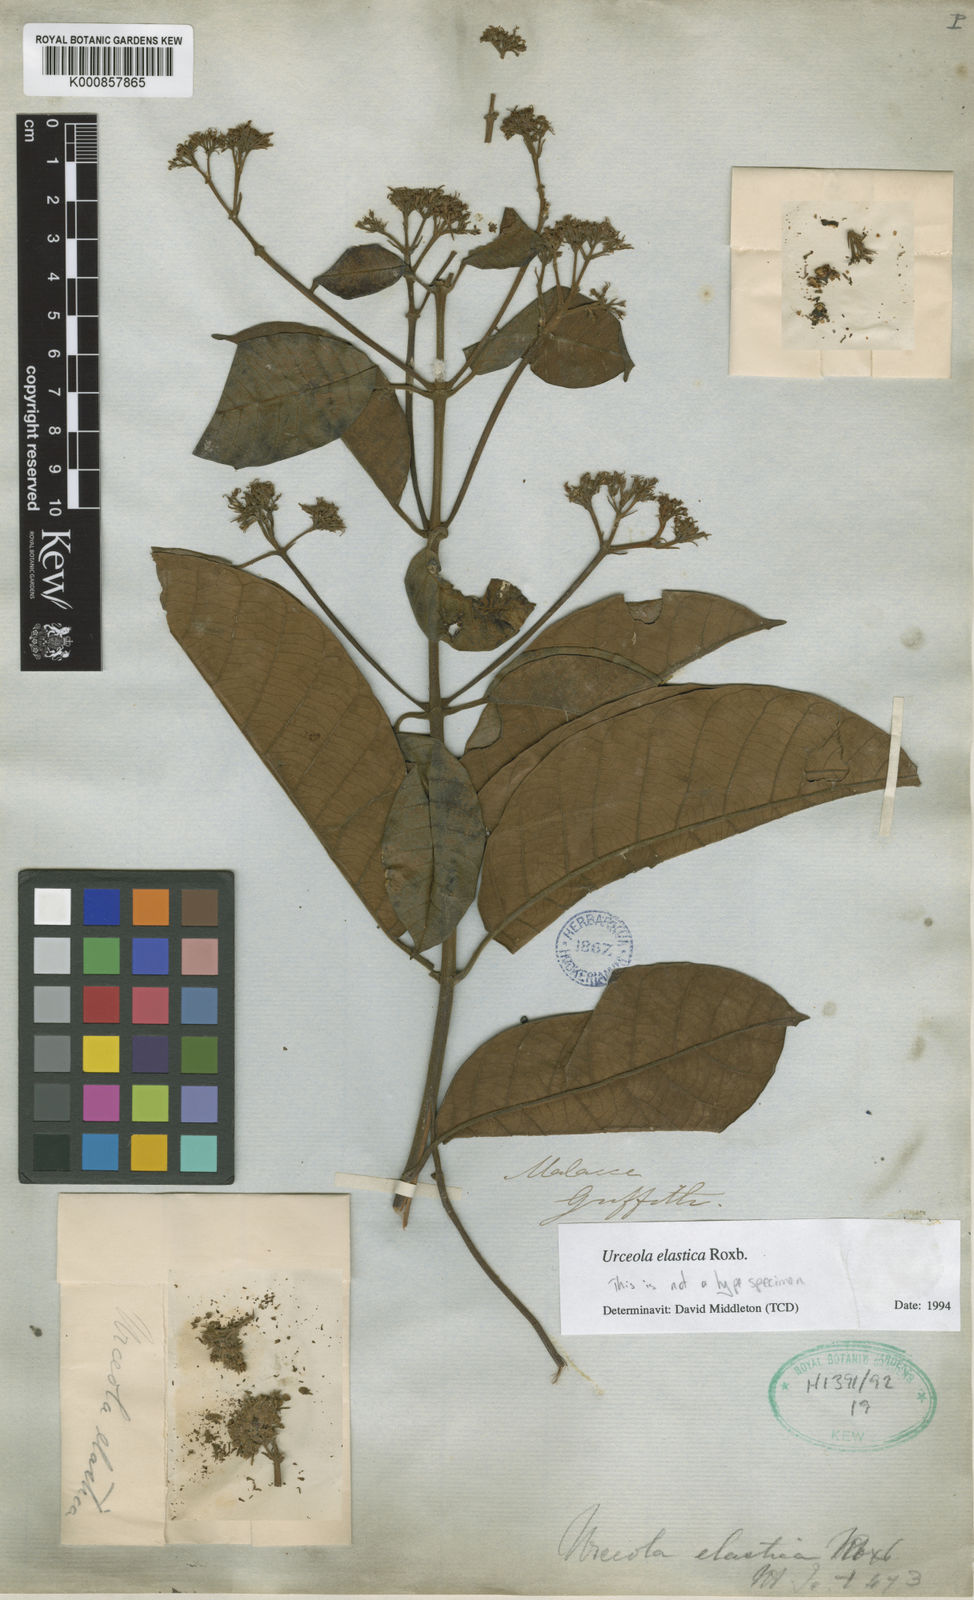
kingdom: Plantae
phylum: Tracheophyta
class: Magnoliopsida
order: Gentianales
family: Apocynaceae
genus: Urceola
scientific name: Urceola elastica
